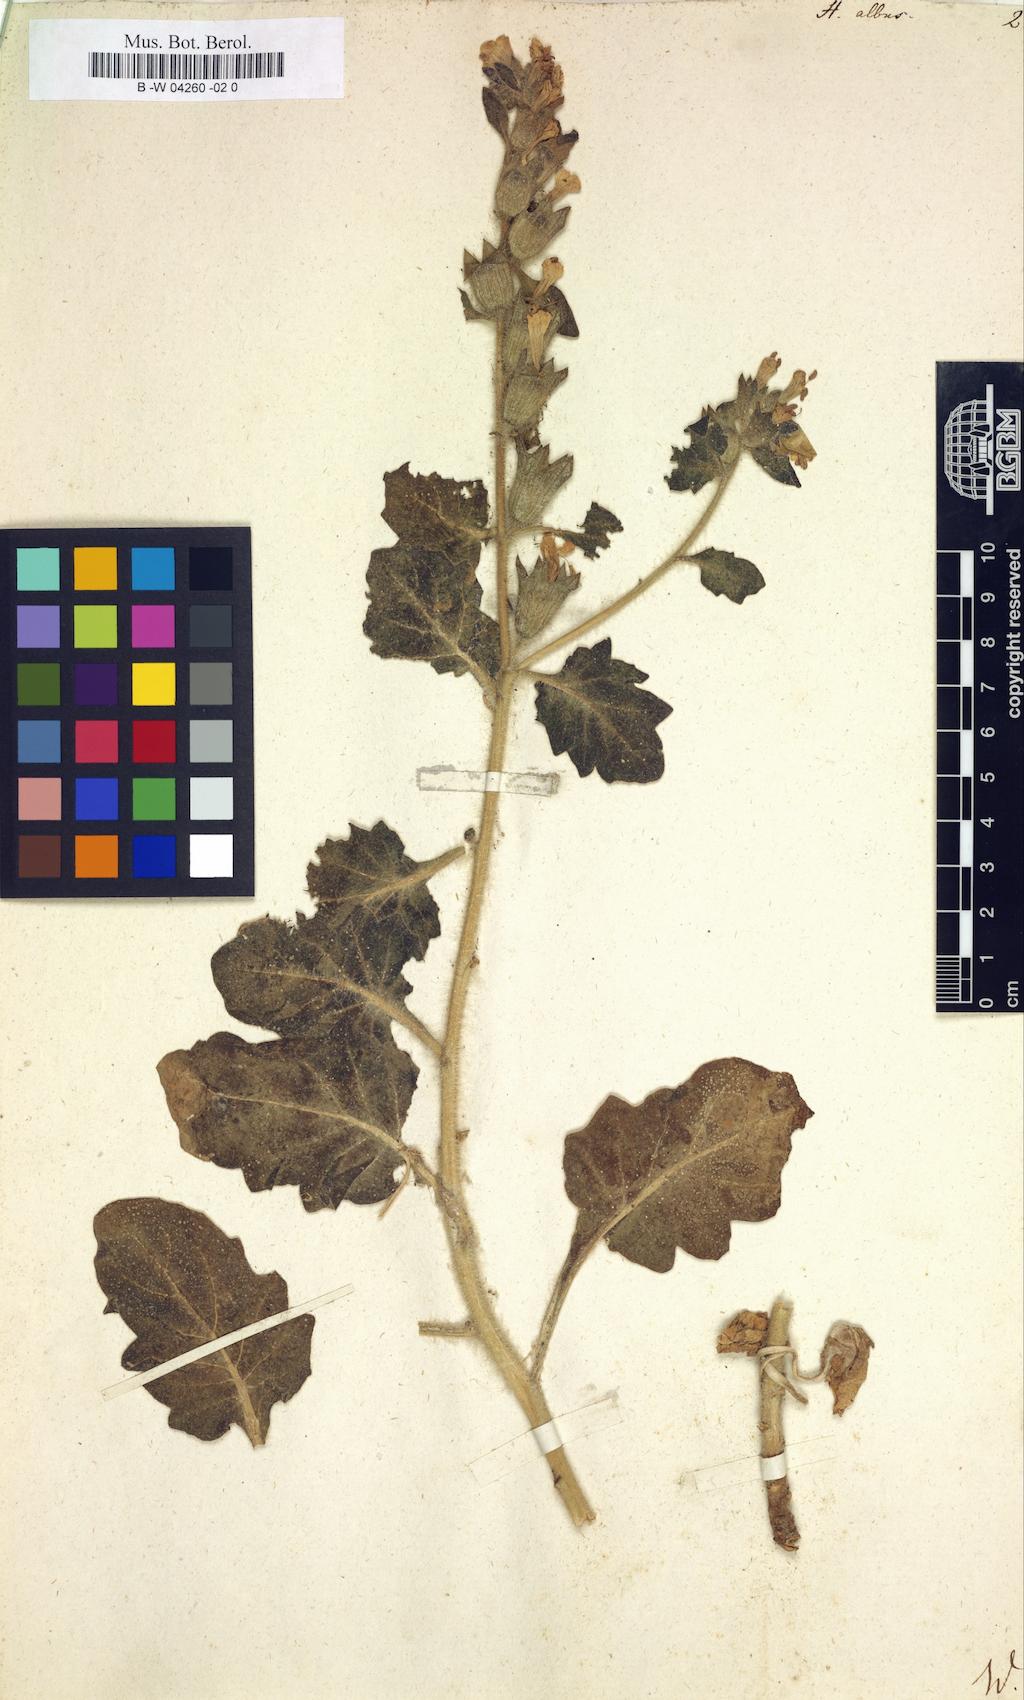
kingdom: Plantae
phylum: Tracheophyta
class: Magnoliopsida
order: Solanales
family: Solanaceae
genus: Hyoscyamus
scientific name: Hyoscyamus albus
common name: White henbane
